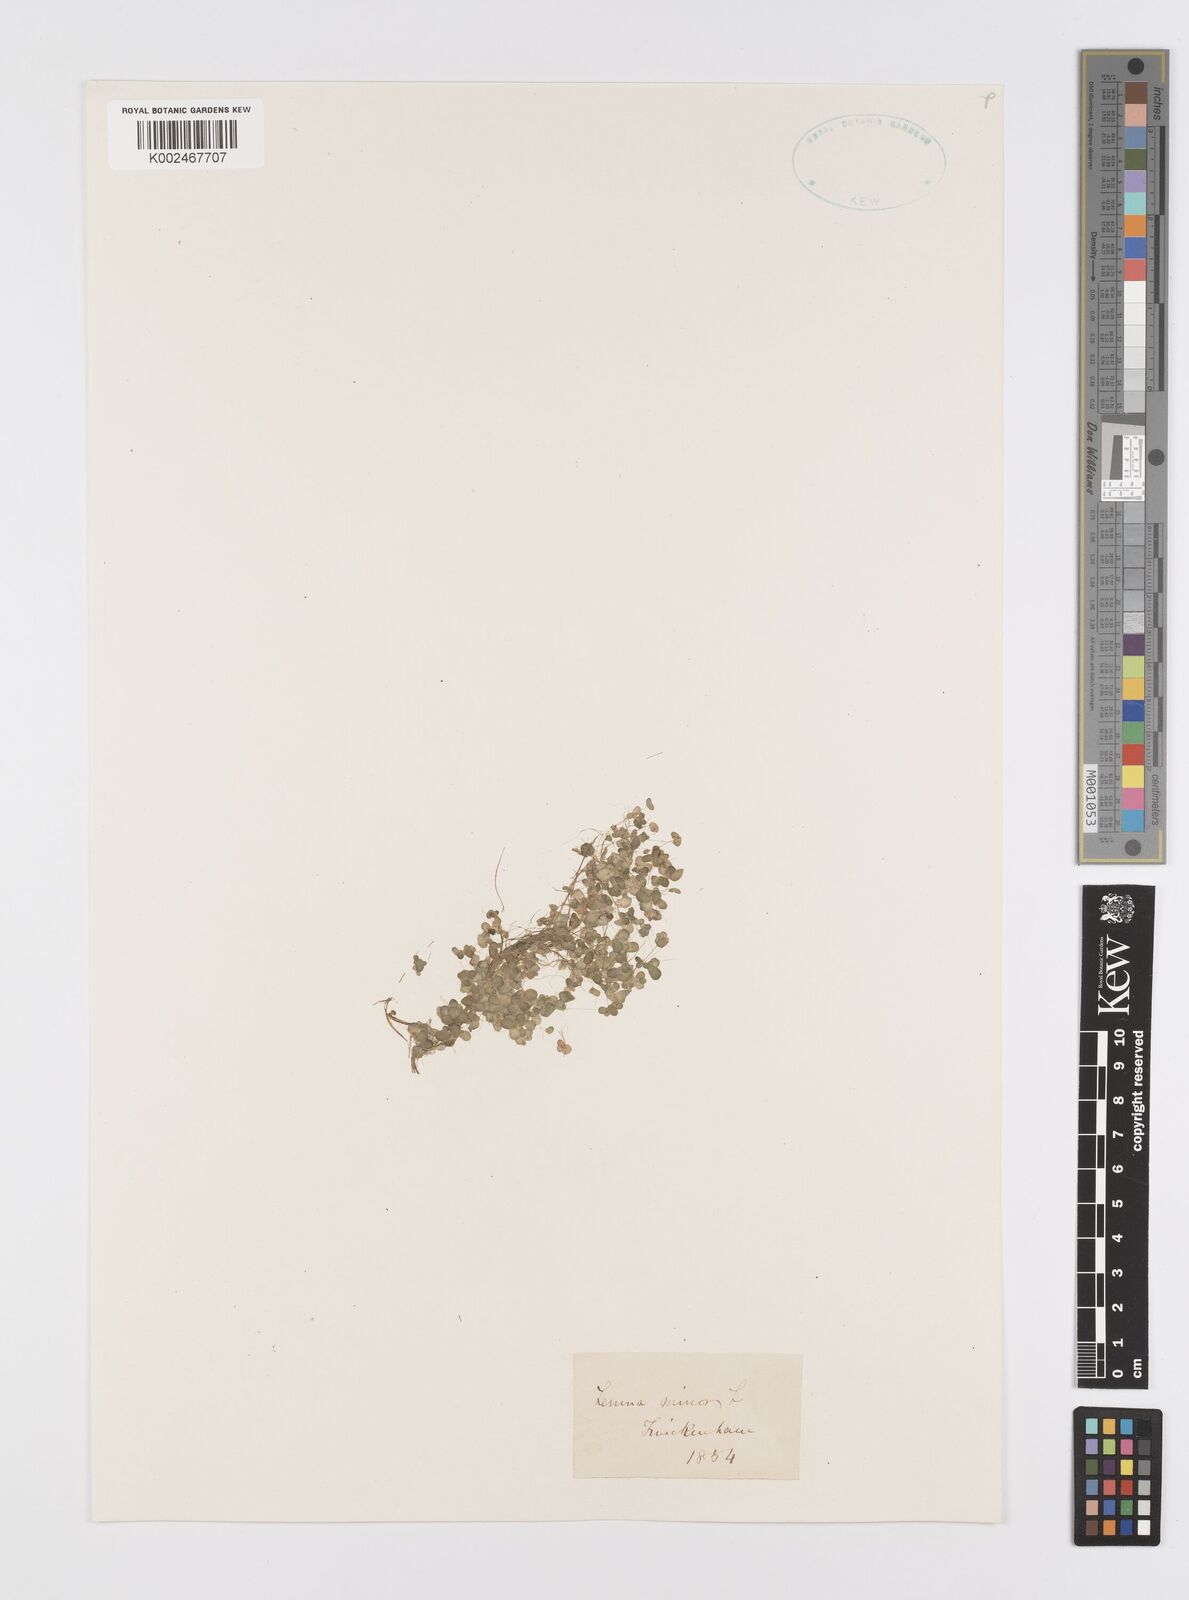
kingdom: Plantae
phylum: Tracheophyta
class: Liliopsida
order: Alismatales
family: Araceae
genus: Lemna
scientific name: Lemna minor
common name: Common duckweed
